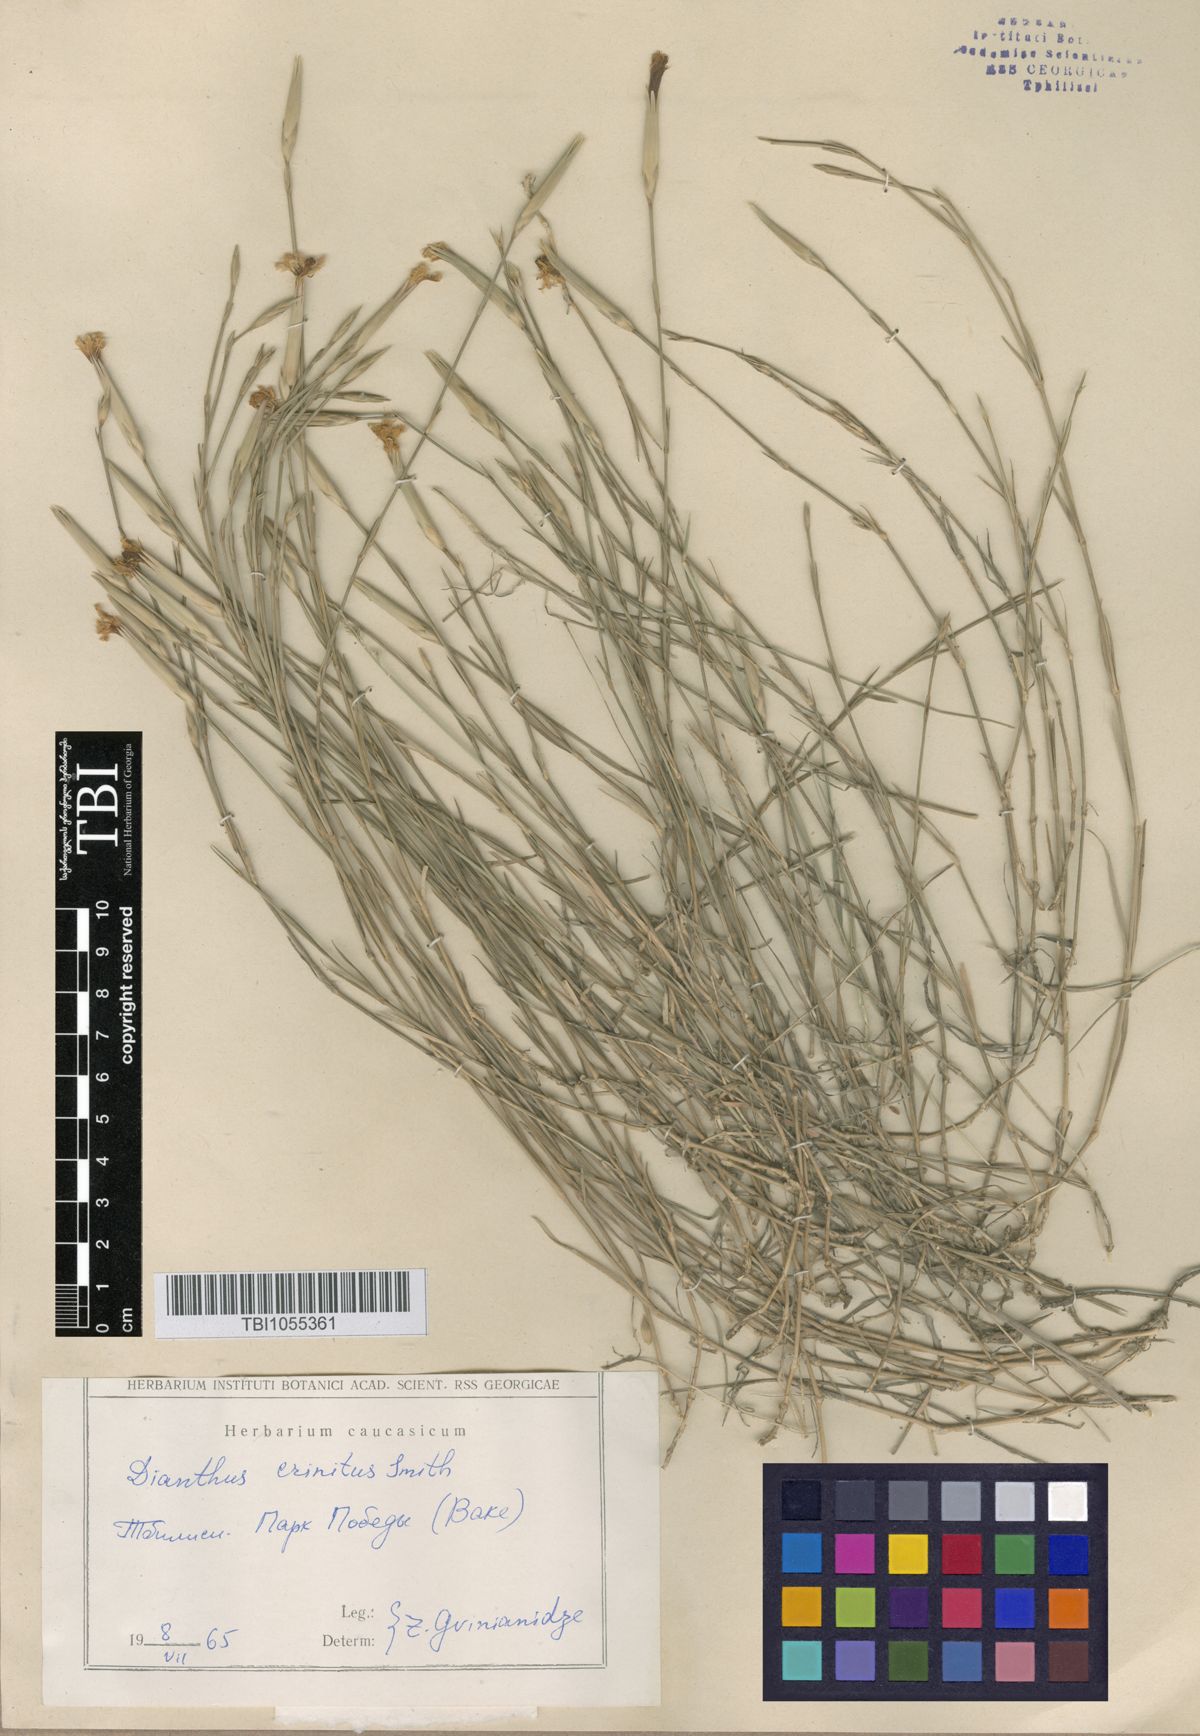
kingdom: Plantae
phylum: Tracheophyta
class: Magnoliopsida
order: Caryophyllales
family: Caryophyllaceae
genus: Dianthus
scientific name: Dianthus crinitus
